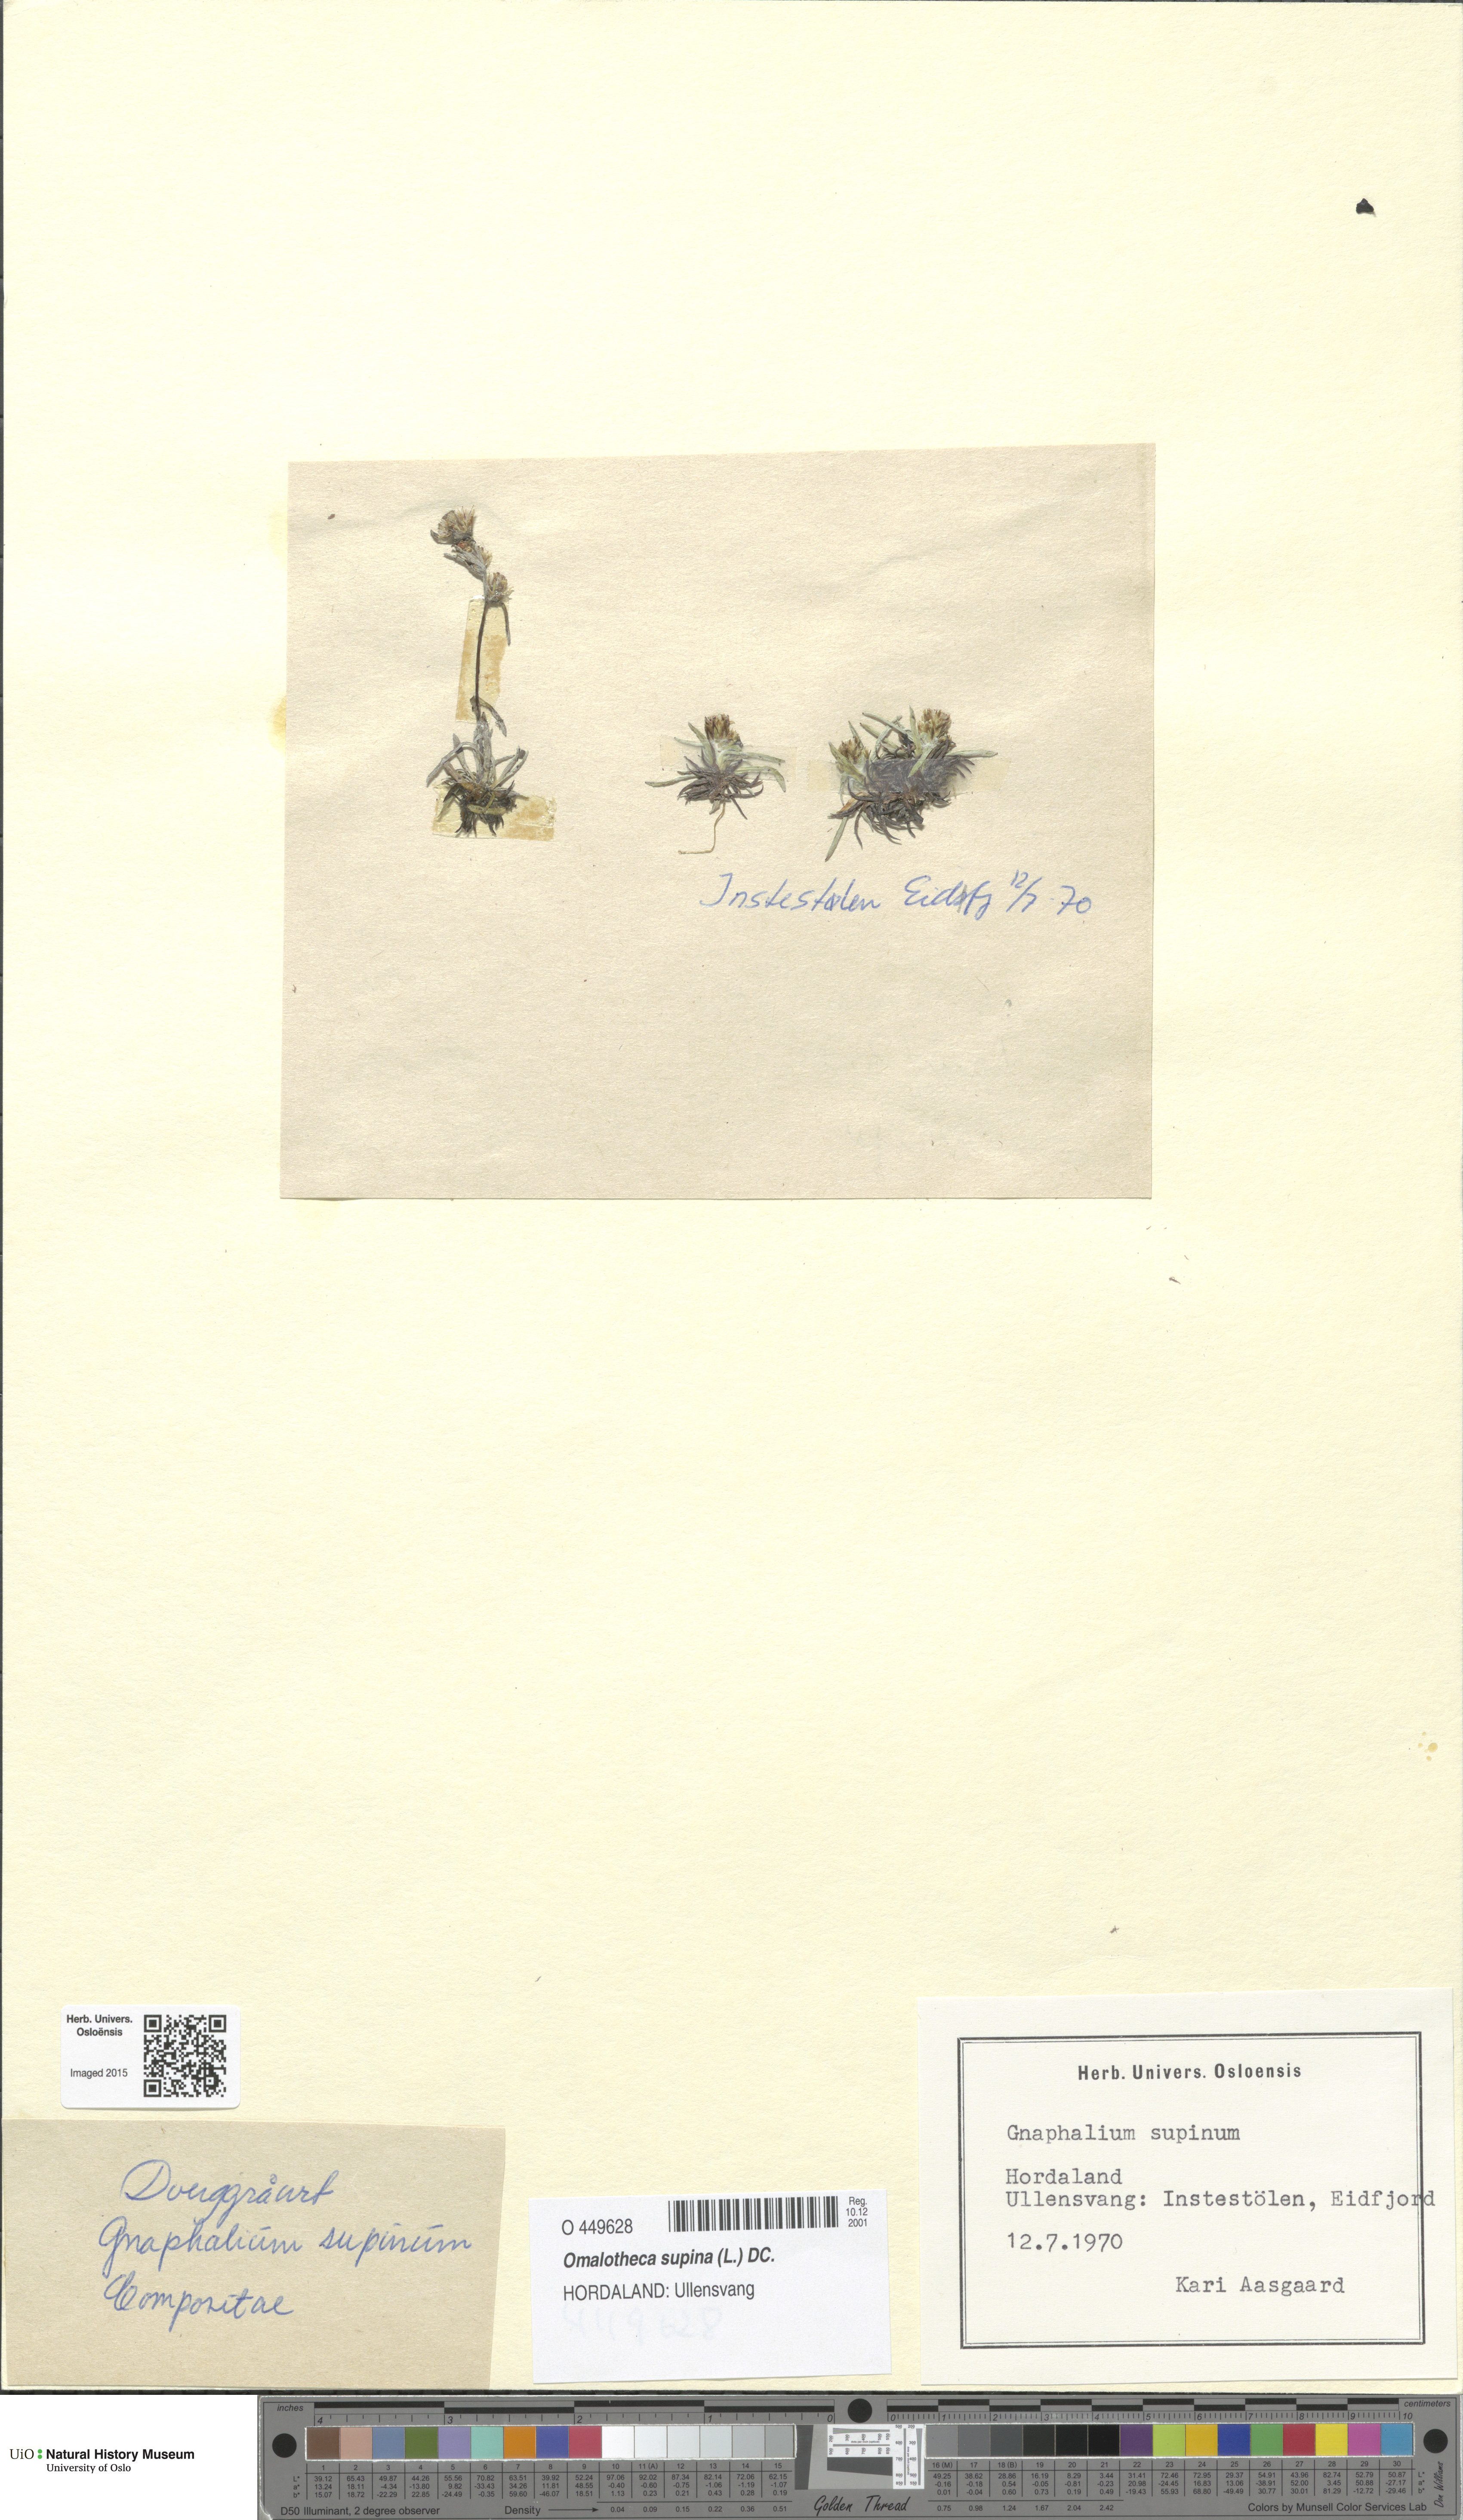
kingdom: Plantae
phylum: Tracheophyta
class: Magnoliopsida
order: Asterales
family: Asteraceae
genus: Omalotheca
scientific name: Omalotheca supina
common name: Alpine arctic-cudweed
